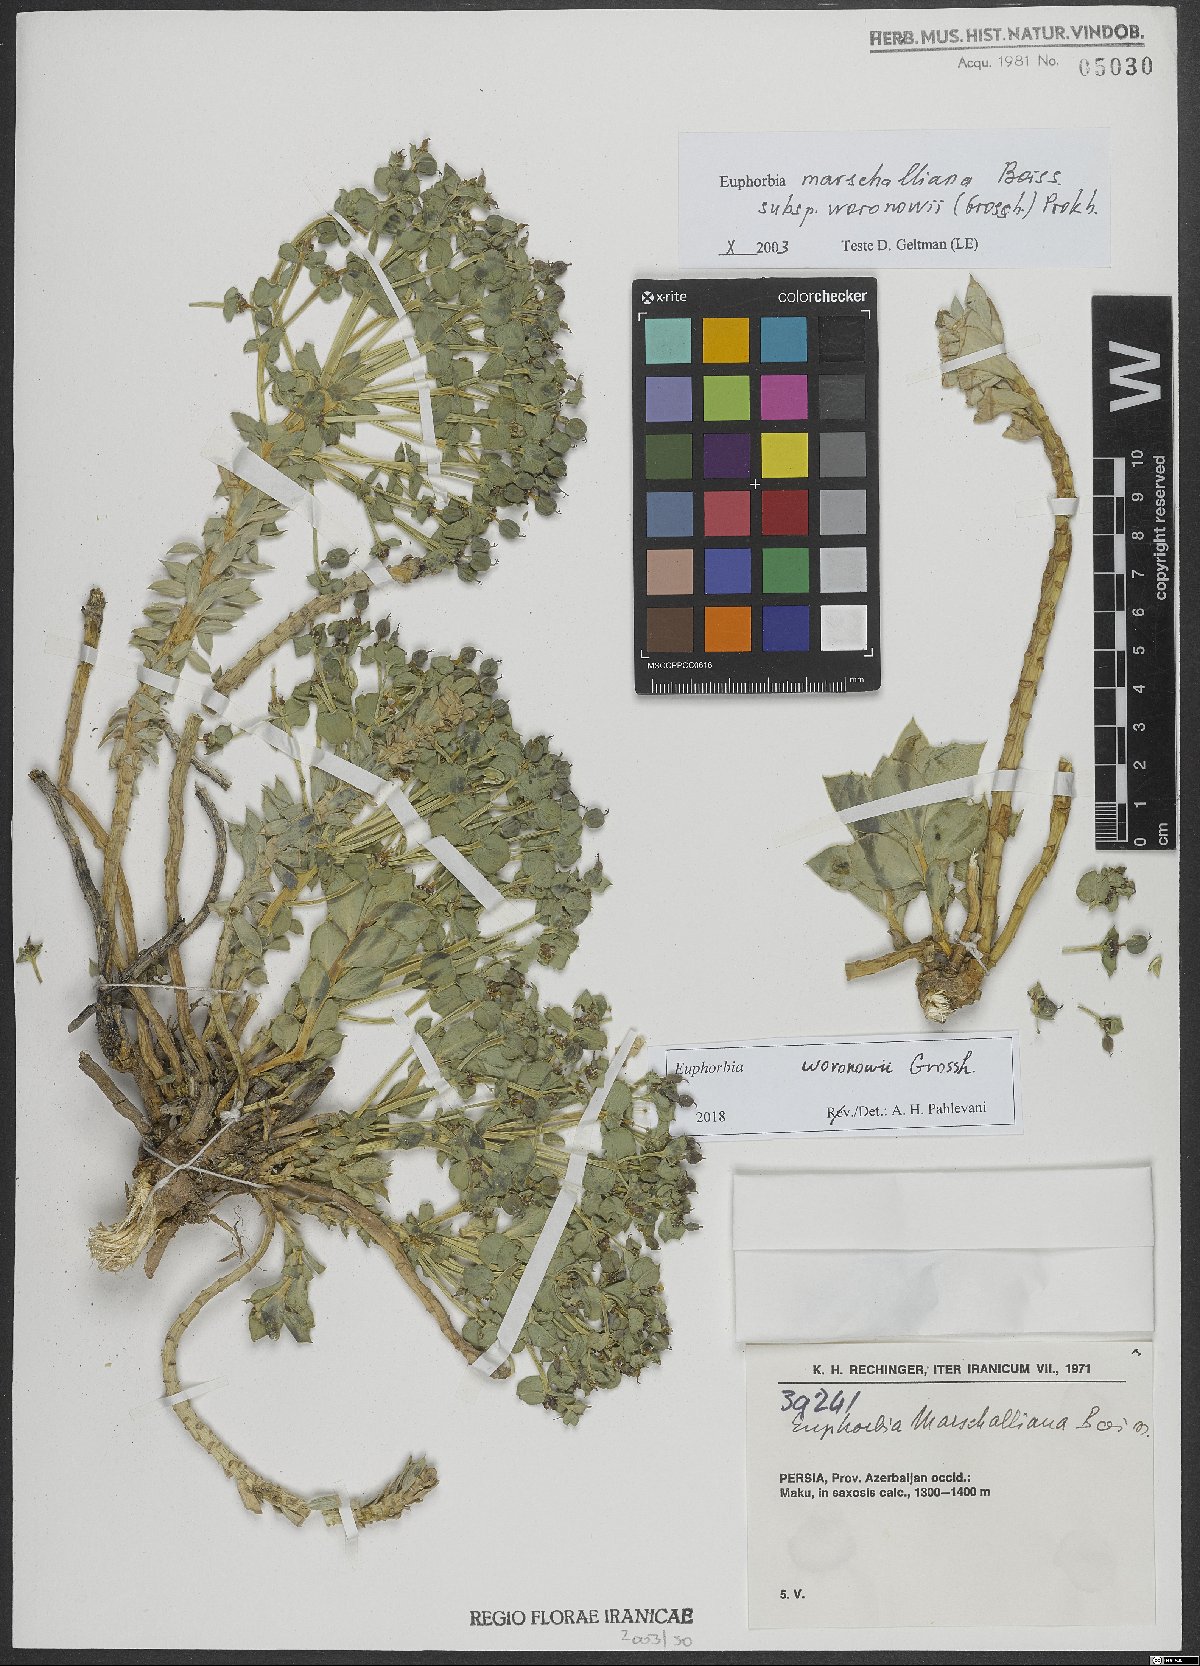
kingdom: Plantae
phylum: Tracheophyta
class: Magnoliopsida
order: Malpighiales
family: Euphorbiaceae
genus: Euphorbia
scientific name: Euphorbia marschalliana
